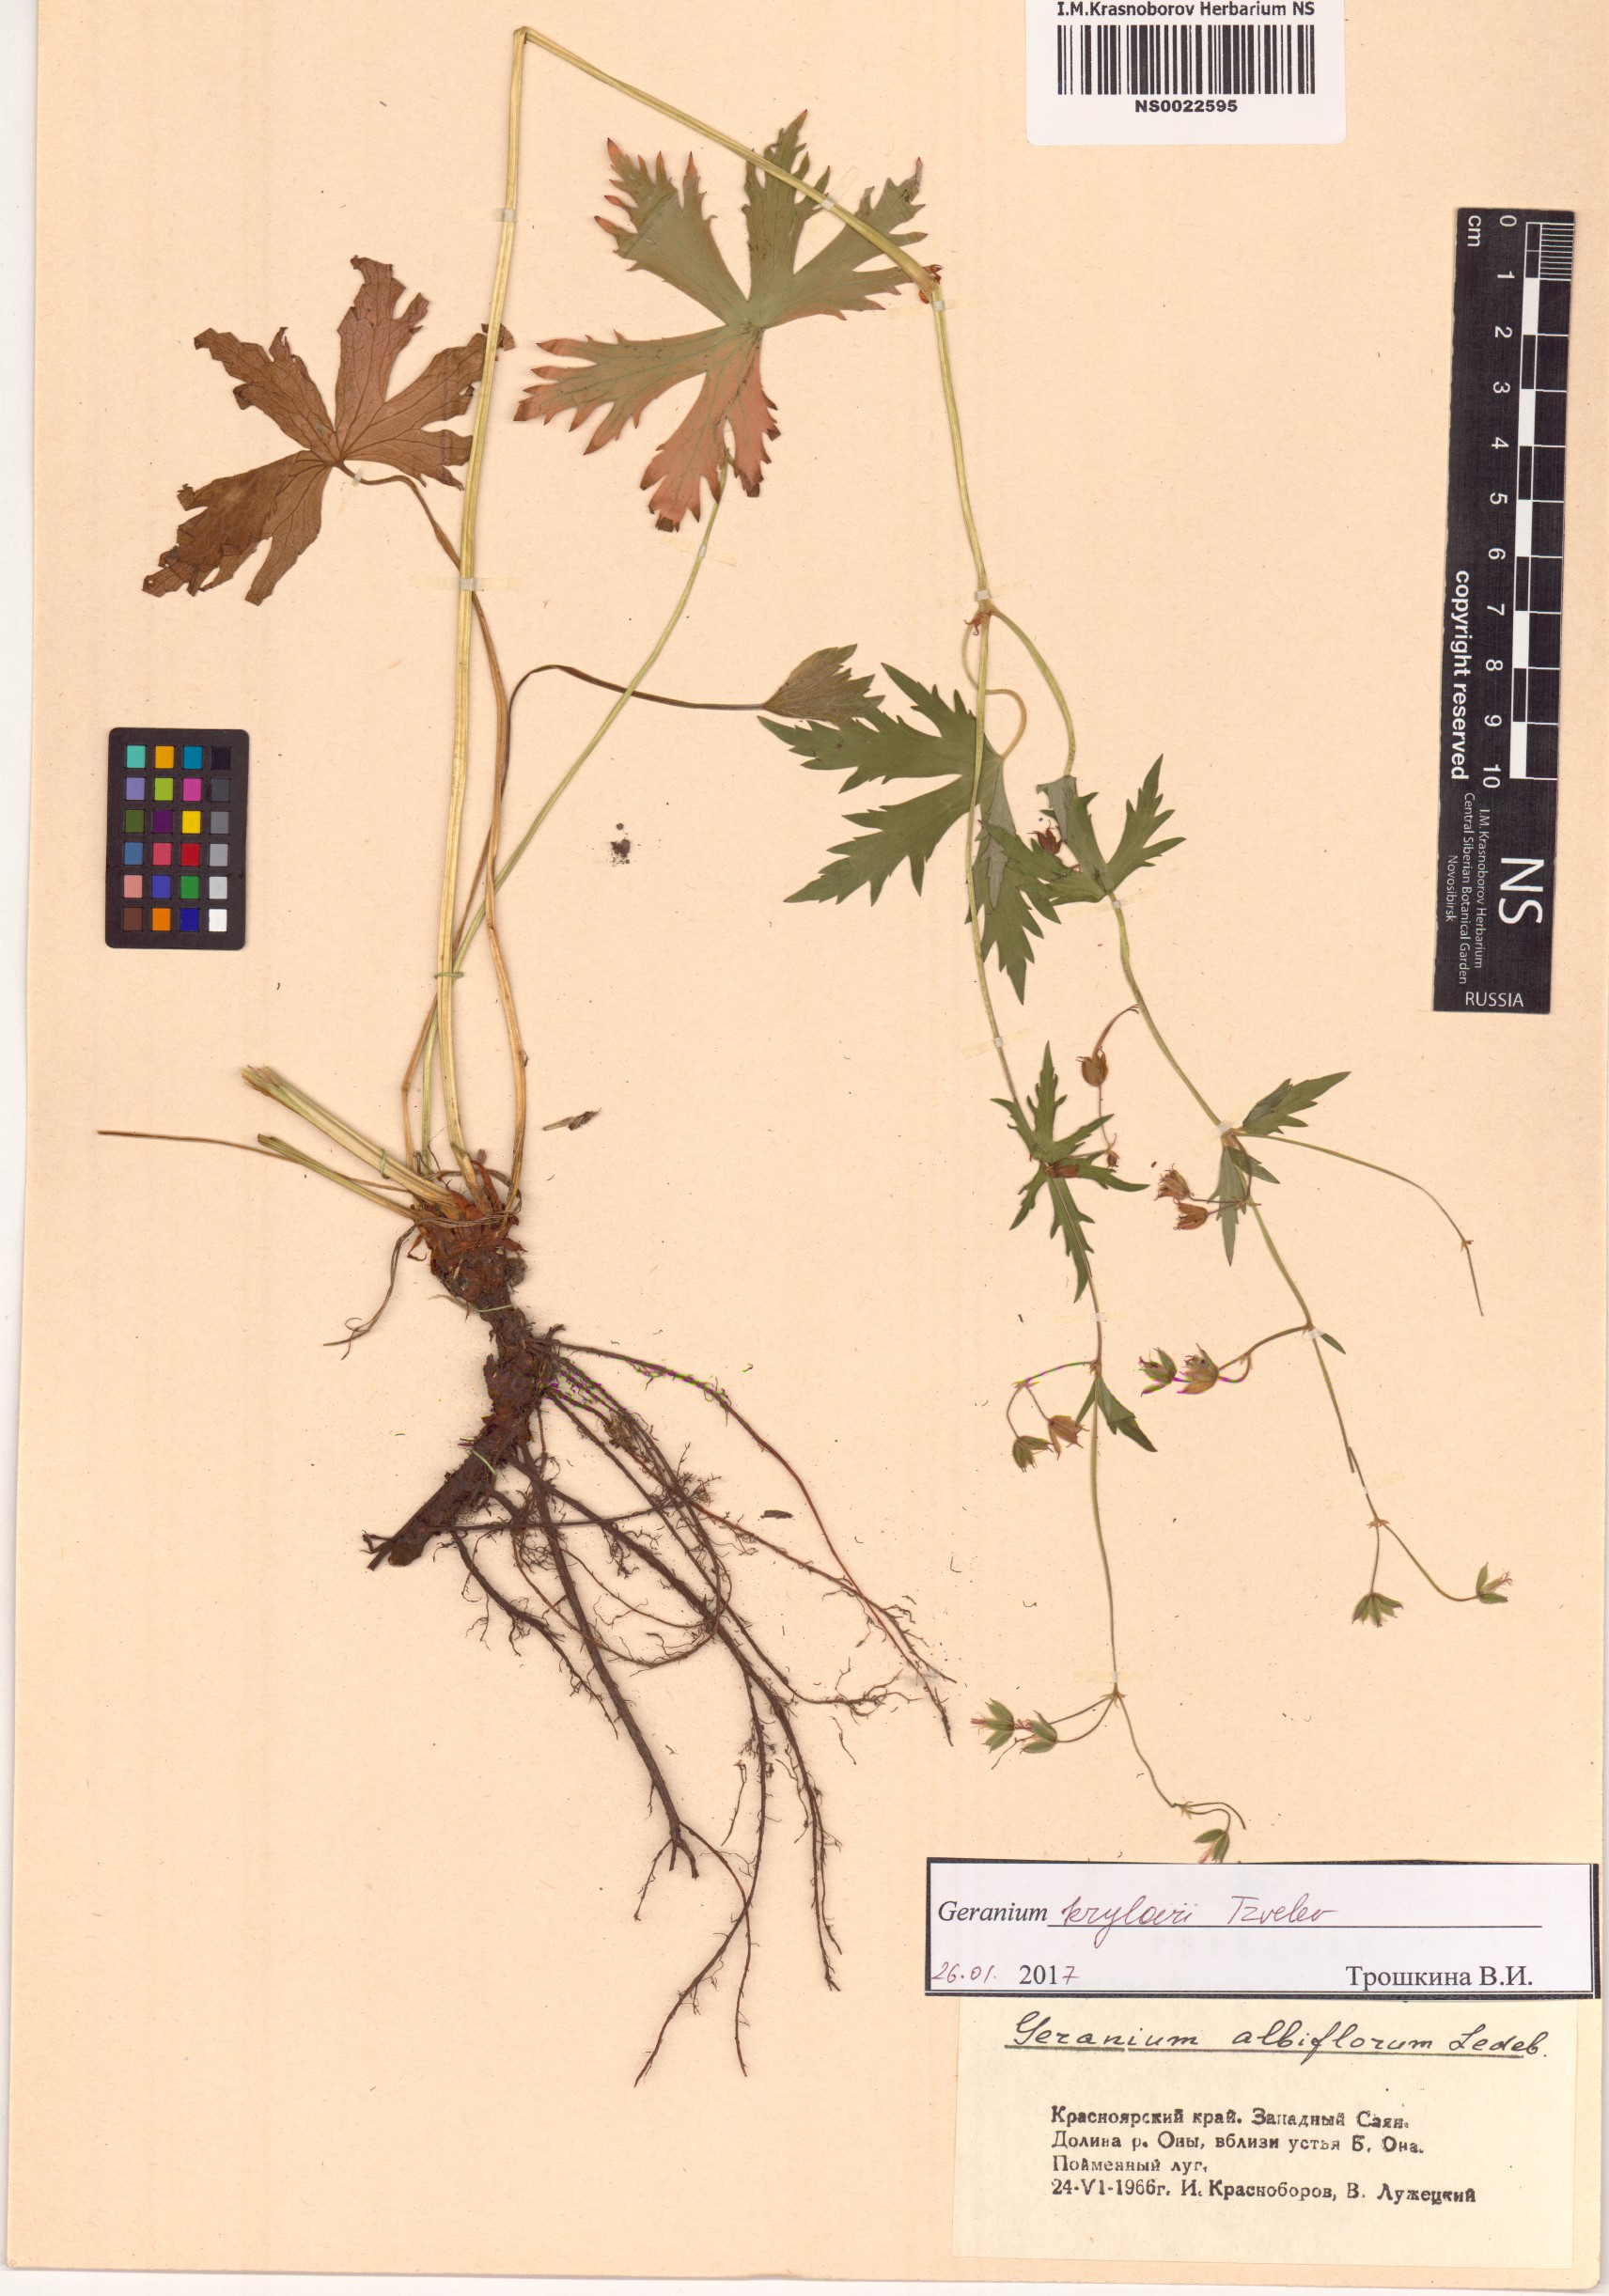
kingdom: Plantae
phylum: Tracheophyta
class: Magnoliopsida
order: Geraniales
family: Geraniaceae
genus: Geranium
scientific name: Geranium sylvaticum
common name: Wood crane's-bill
